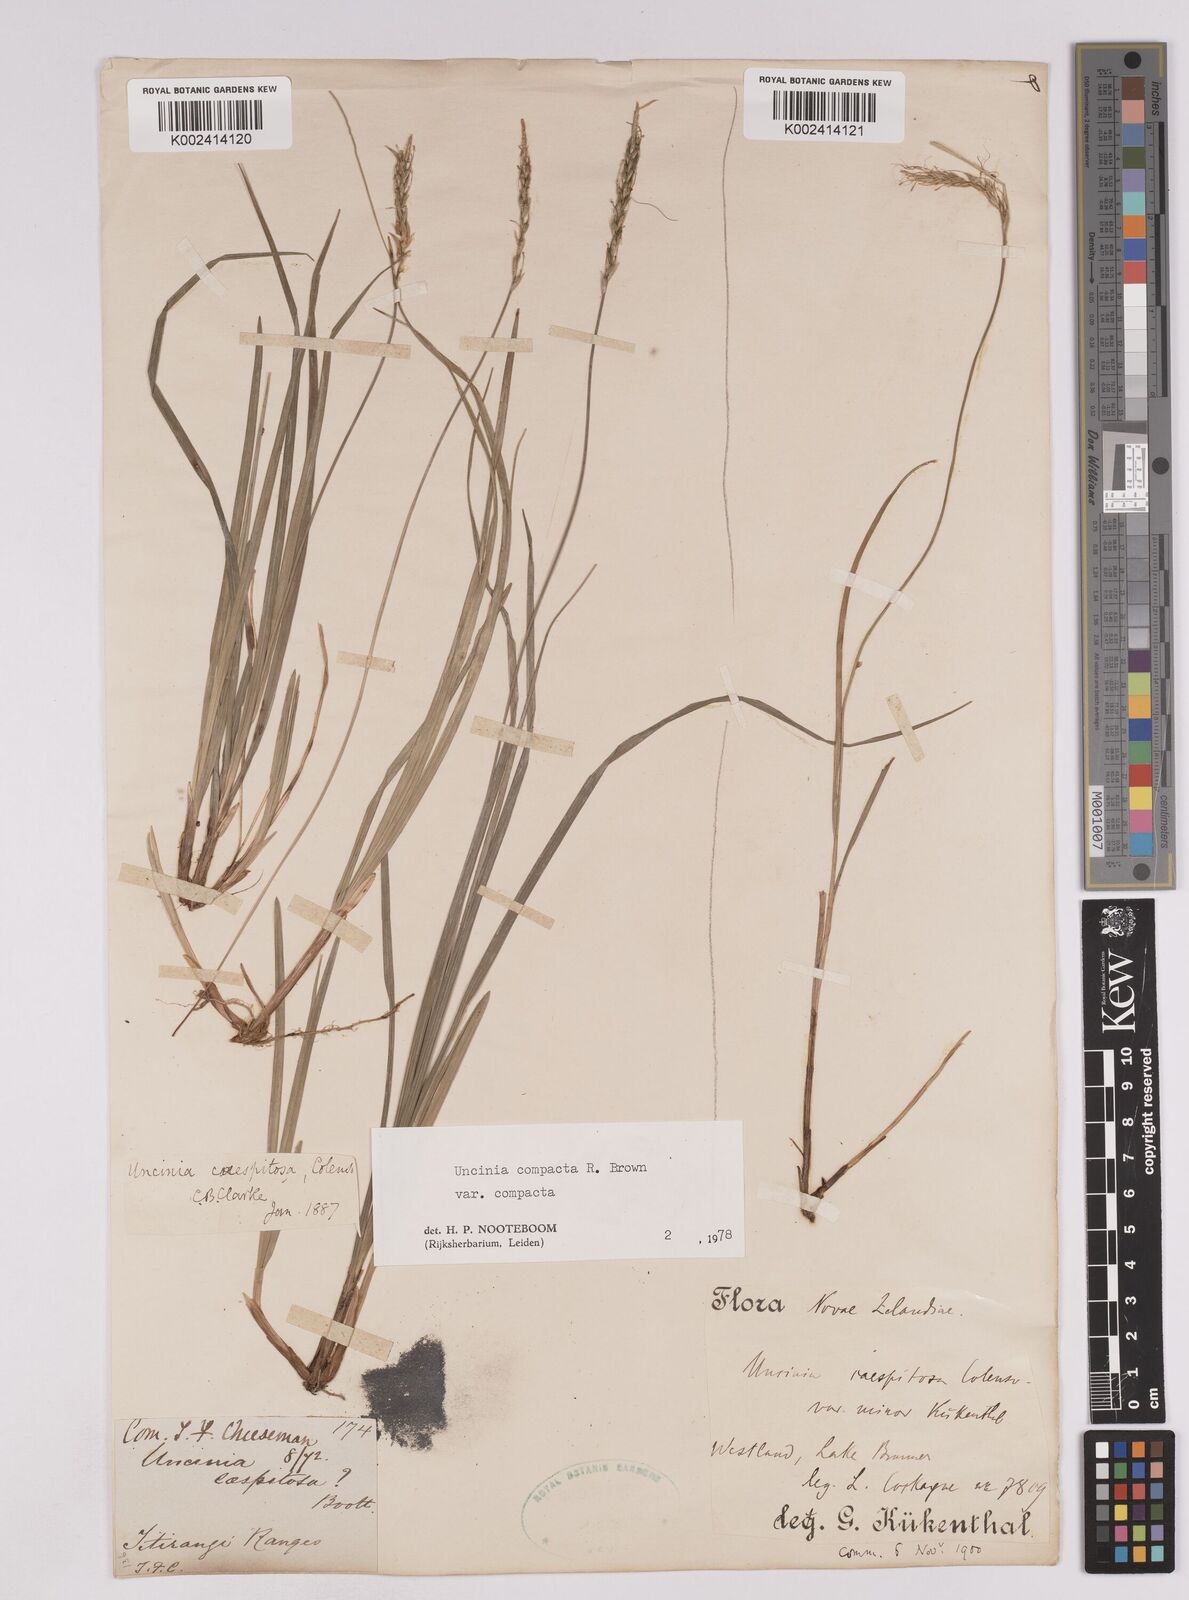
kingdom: Plantae
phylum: Tracheophyta
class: Liliopsida
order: Poales
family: Cyperaceae
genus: Carex
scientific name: Carex austrocompacta
